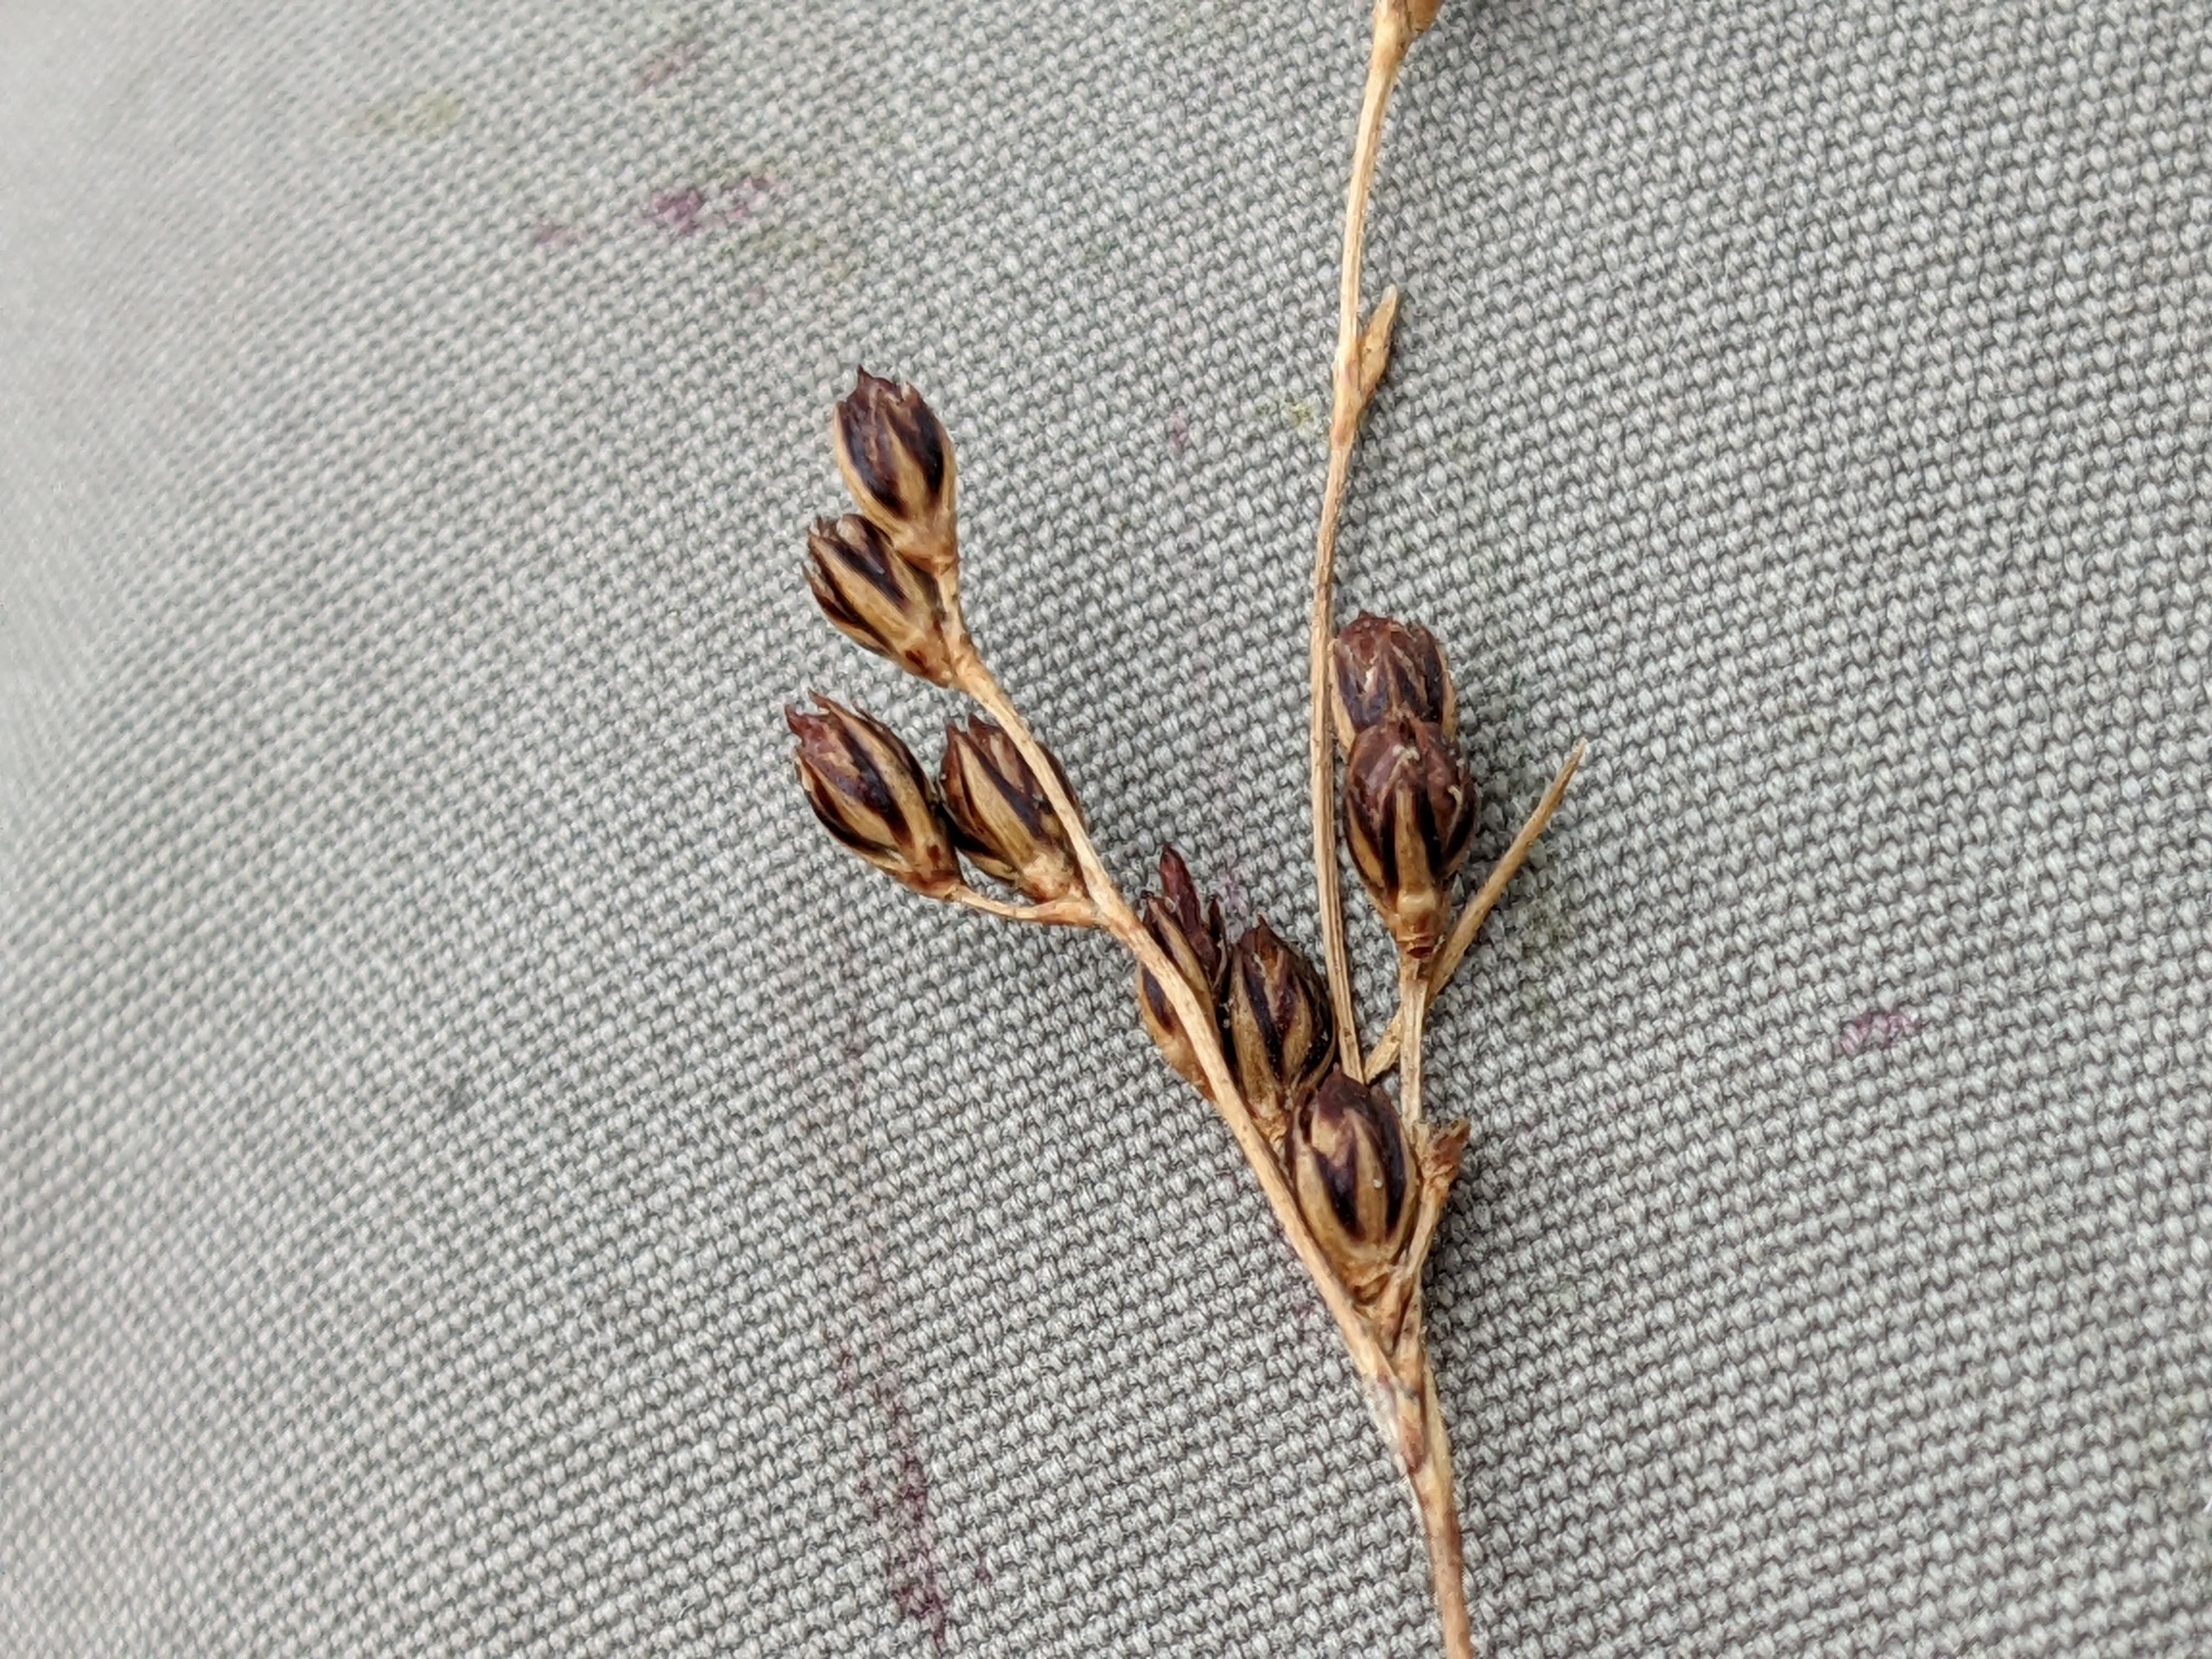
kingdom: Plantae
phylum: Tracheophyta
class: Liliopsida
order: Poales
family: Juncaceae
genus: Juncus
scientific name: Juncus gerardi
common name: Harril
